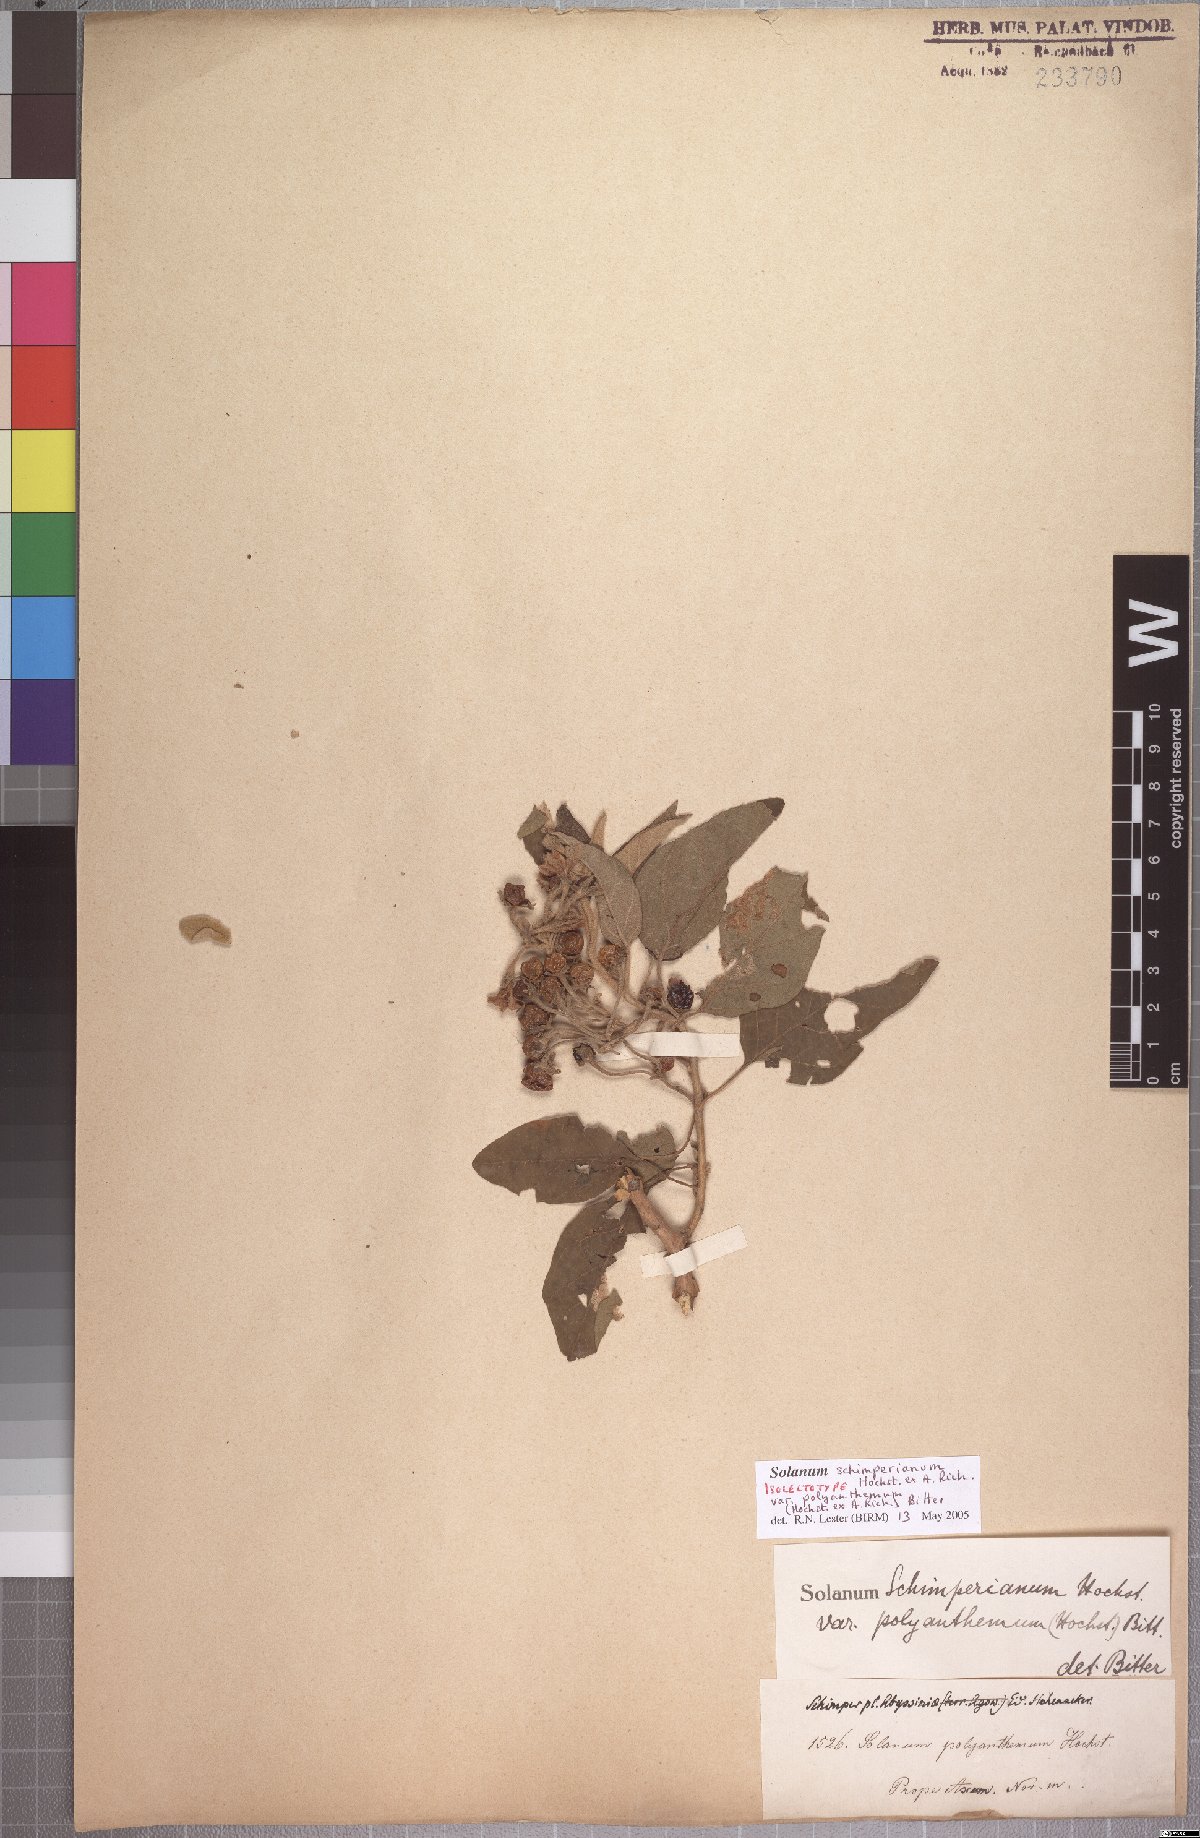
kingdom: Plantae
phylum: Tracheophyta
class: Magnoliopsida
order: Solanales
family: Solanaceae
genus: Solanum
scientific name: Solanum schimperianum
